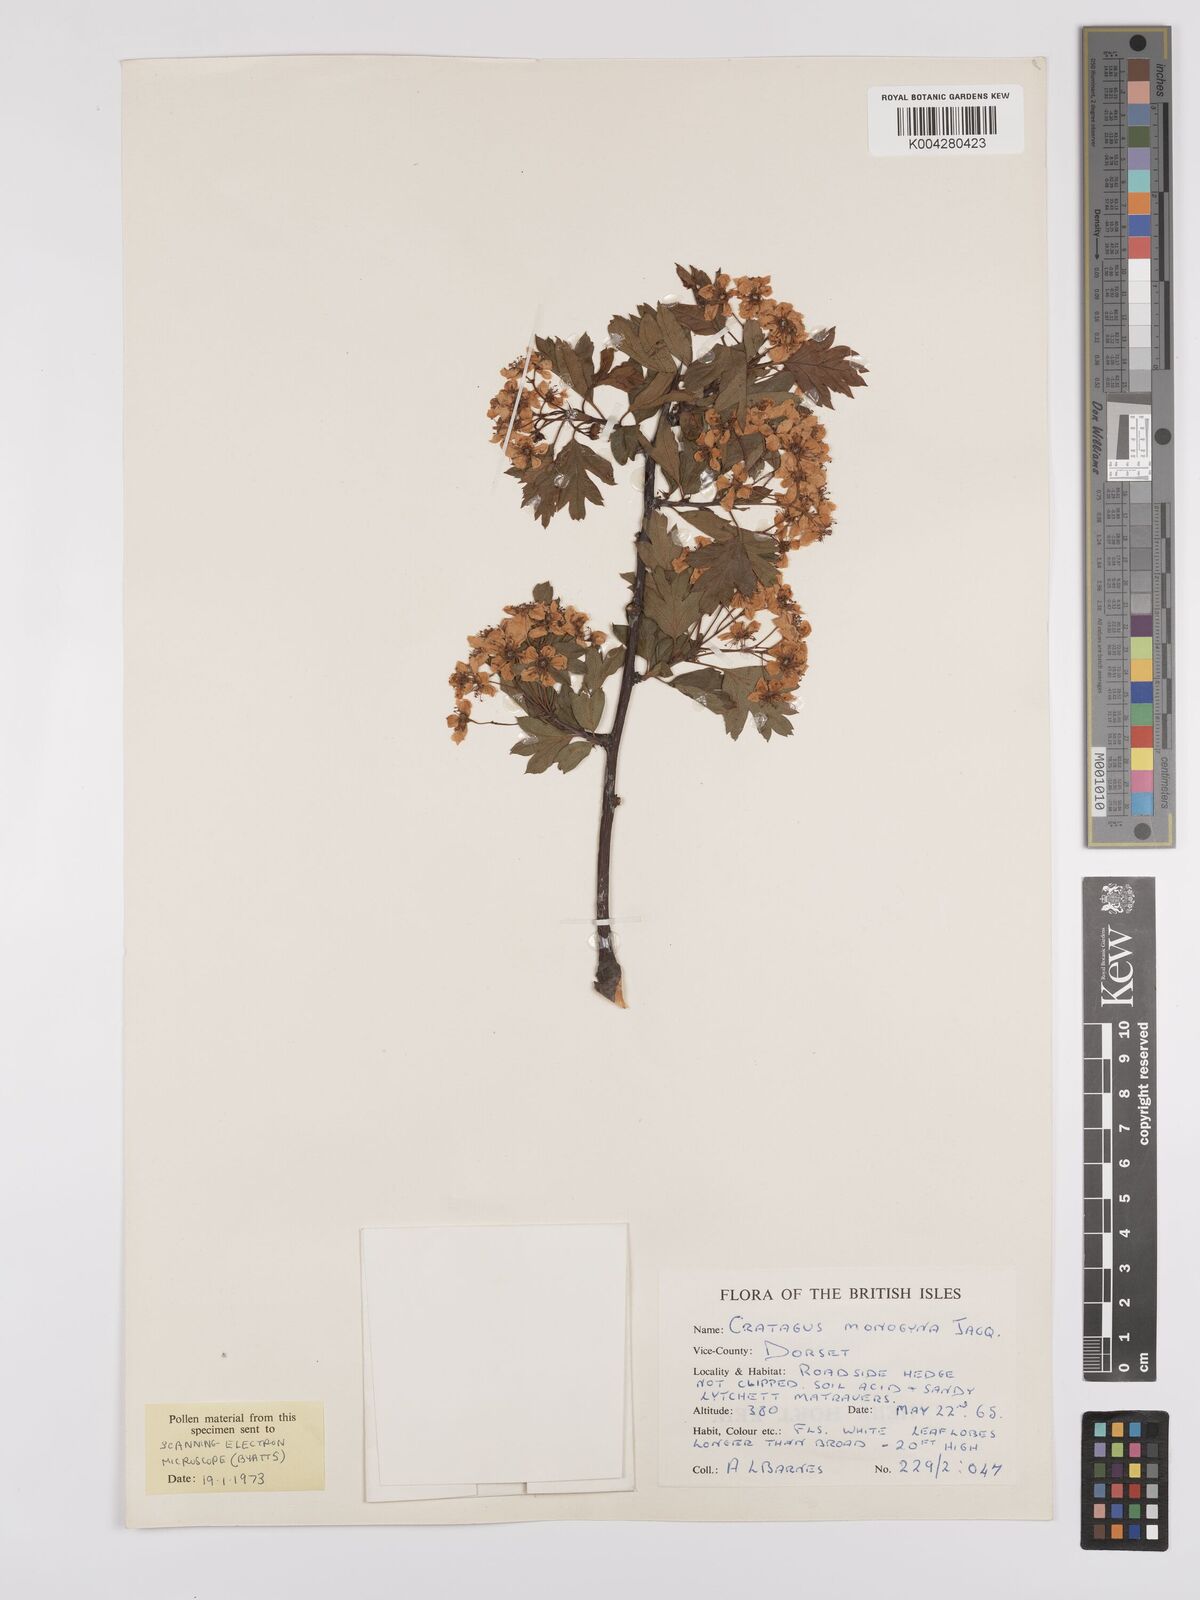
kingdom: Plantae
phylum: Tracheophyta
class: Magnoliopsida
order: Rosales
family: Rosaceae
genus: Crataegus
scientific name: Crataegus monogyna
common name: Hawthorn
